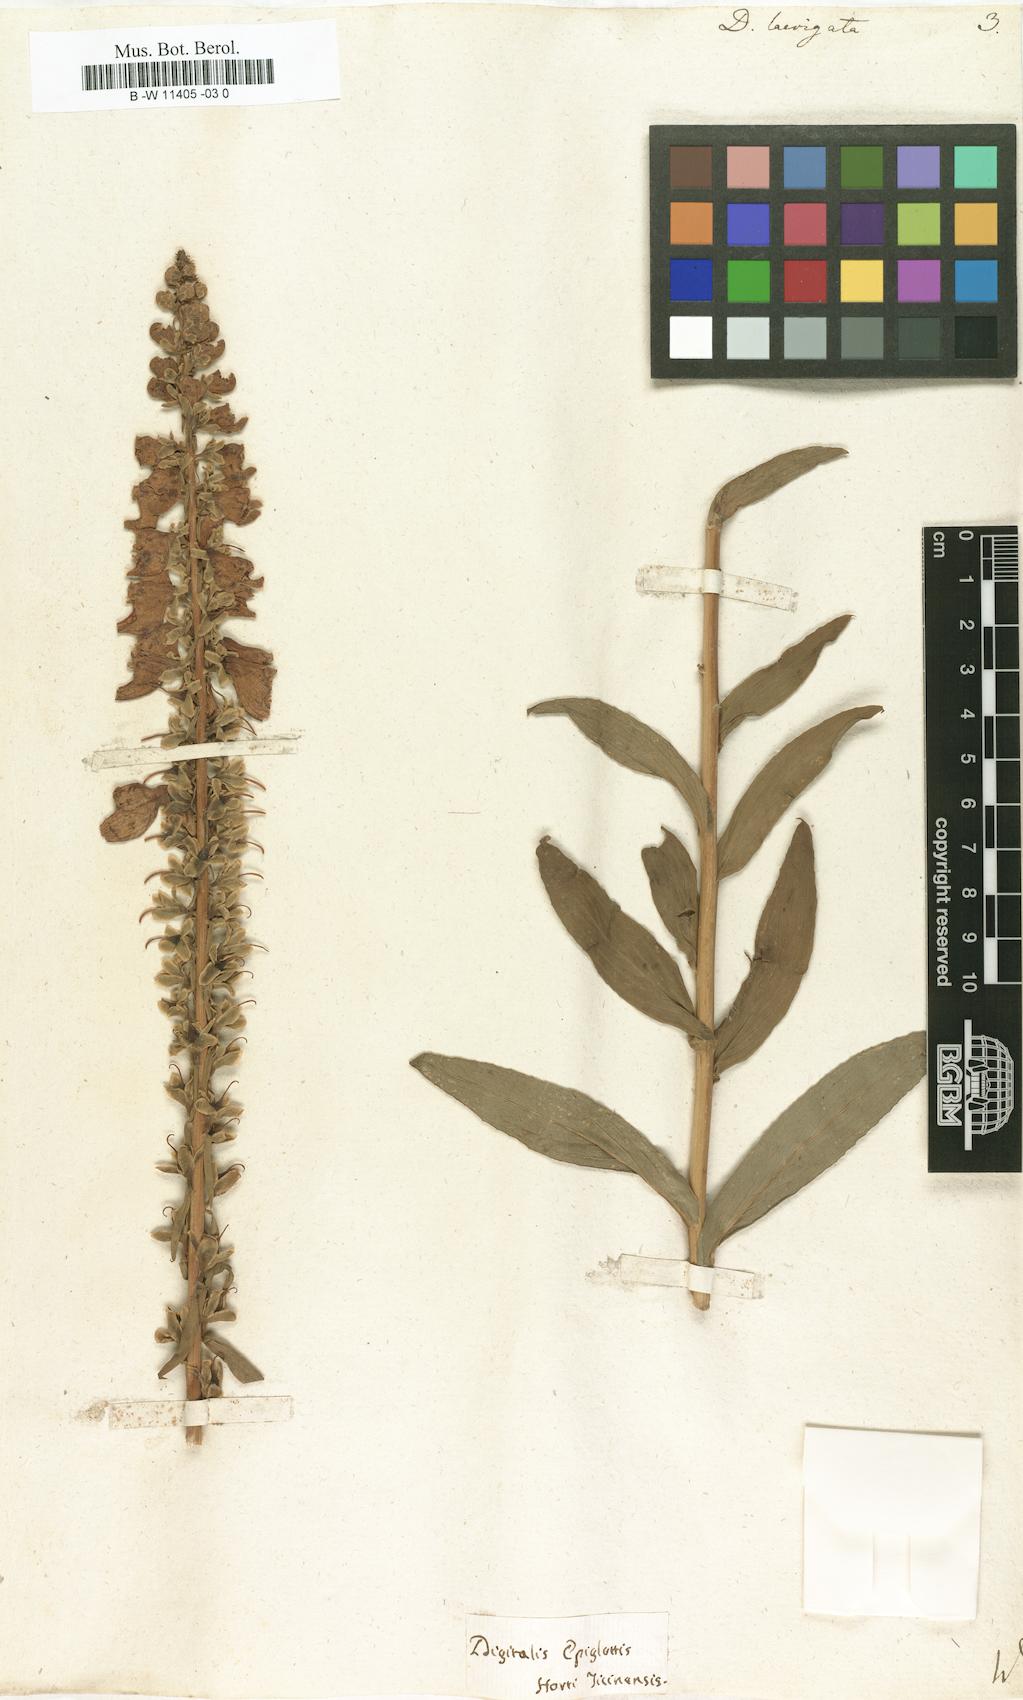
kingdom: Plantae
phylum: Tracheophyta
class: Magnoliopsida
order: Lamiales
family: Plantaginaceae
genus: Digitalis
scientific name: Digitalis laevigata
